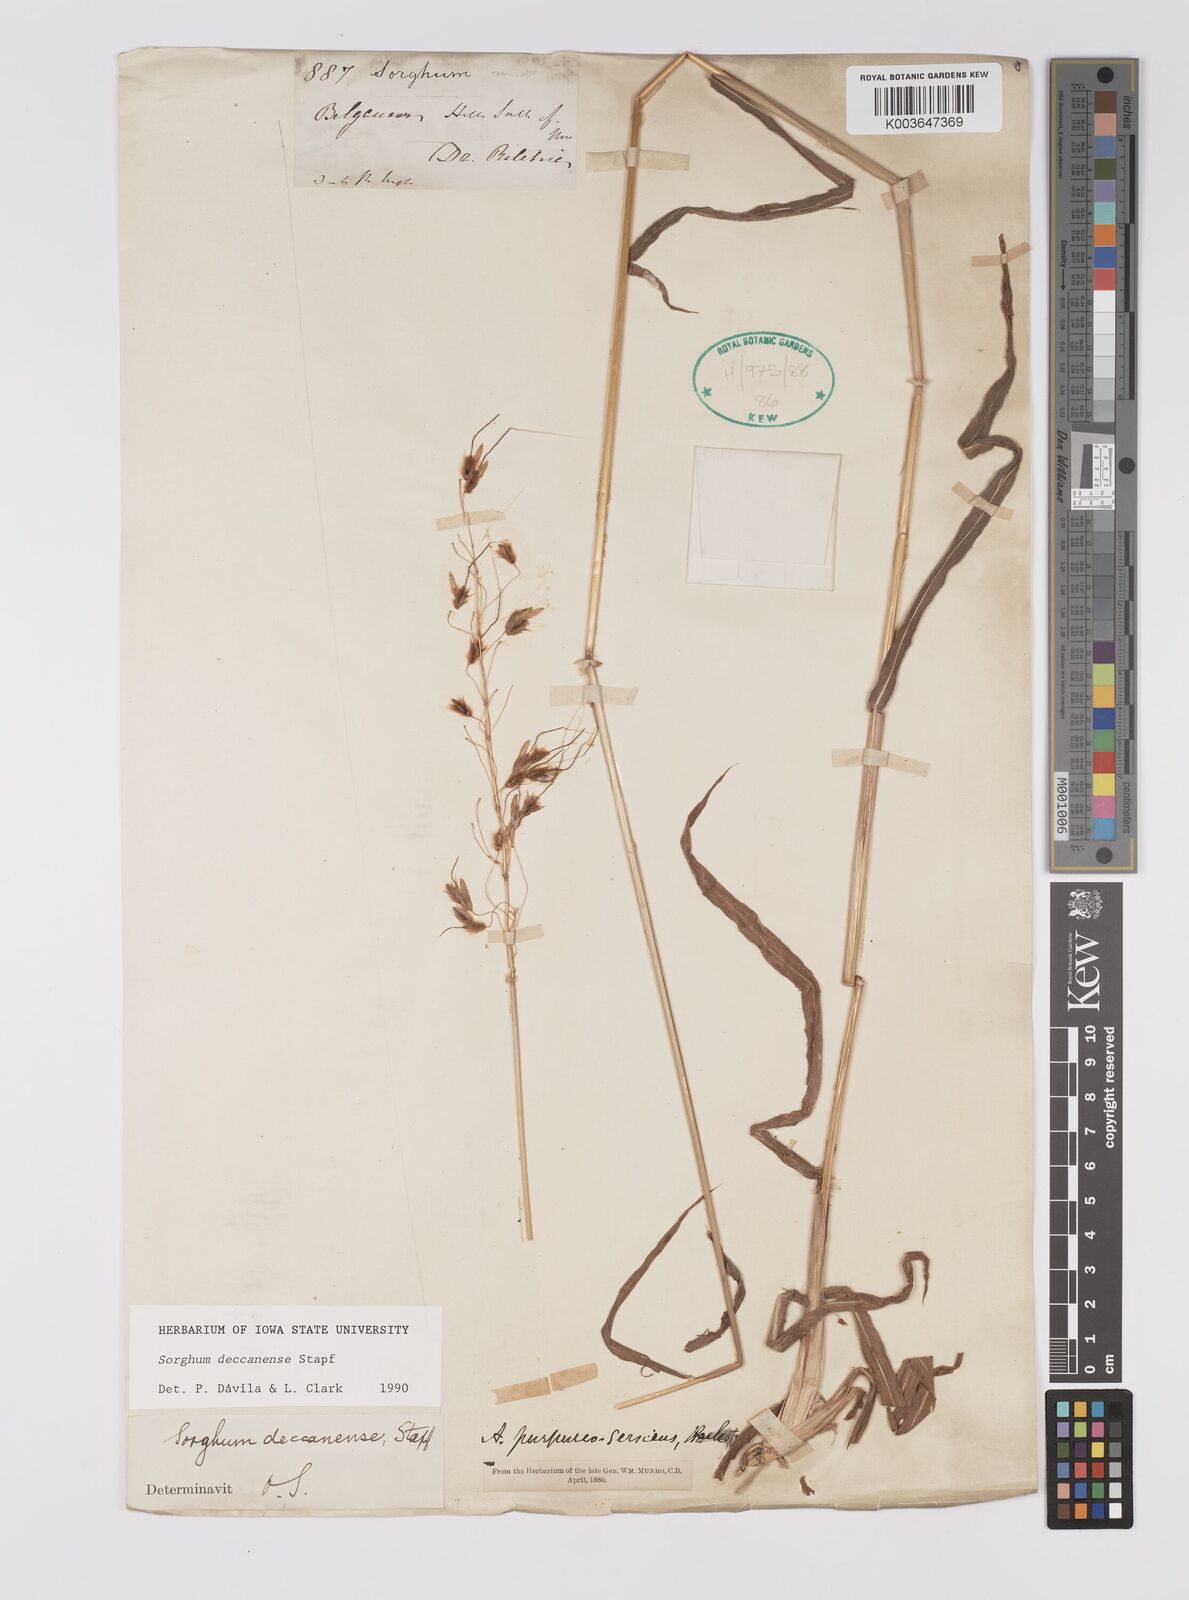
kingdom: Plantae
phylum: Tracheophyta
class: Liliopsida
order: Poales
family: Poaceae
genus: Sarga
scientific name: Sarga purpureosericea
